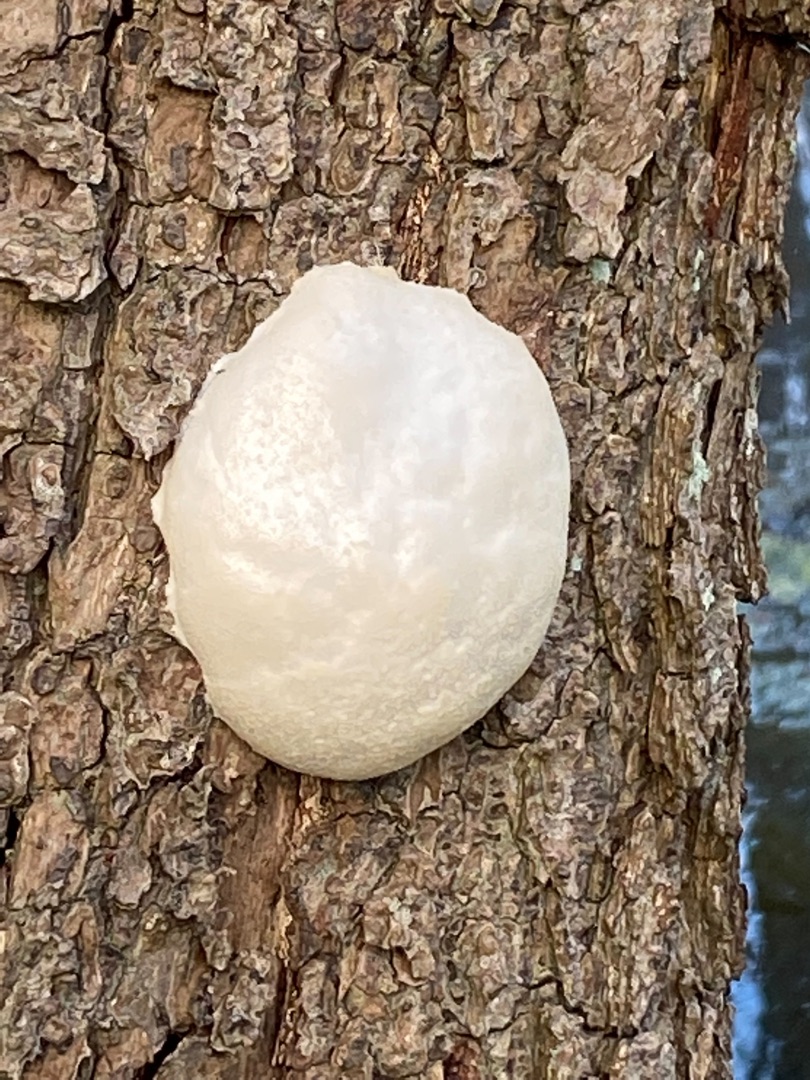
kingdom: Protozoa
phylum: Mycetozoa
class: Myxomycetes
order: Cribrariales
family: Tubiferaceae
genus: Reticularia
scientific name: Reticularia lycoperdon
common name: Skinnende støvpude
